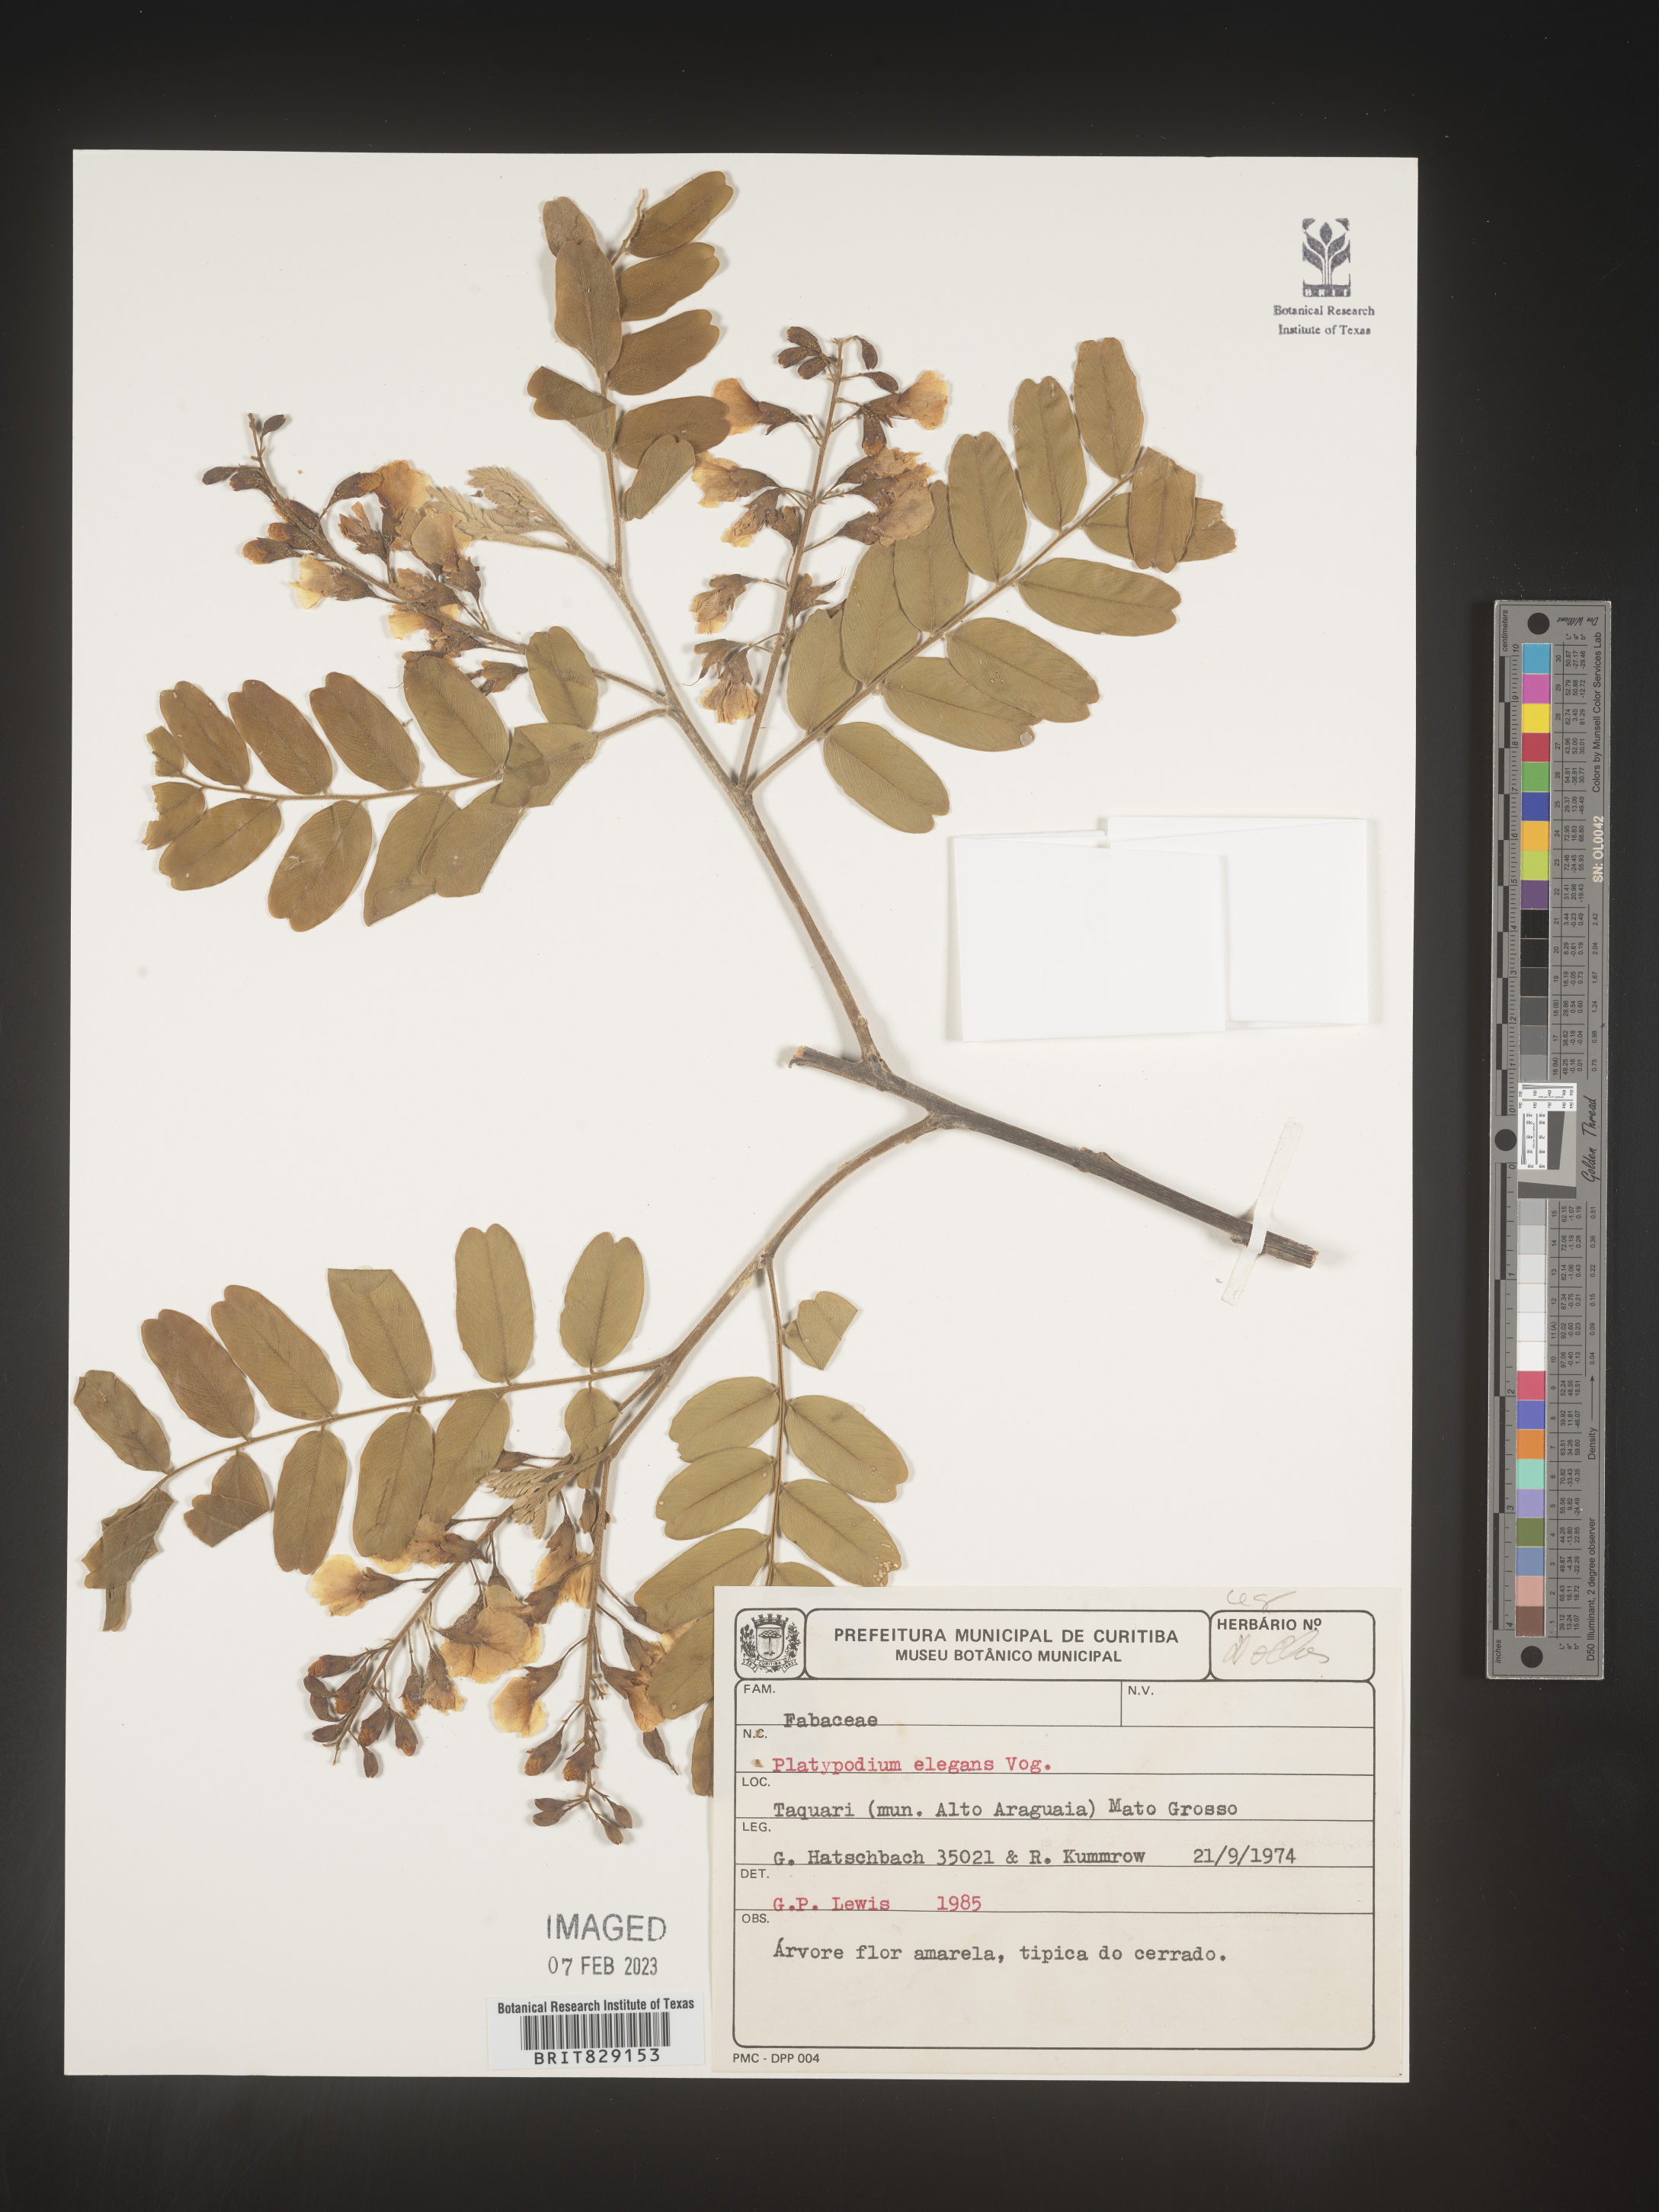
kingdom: Plantae
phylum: Tracheophyta
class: Magnoliopsida
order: Fabales
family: Fabaceae
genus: Platypodium
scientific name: Platypodium
